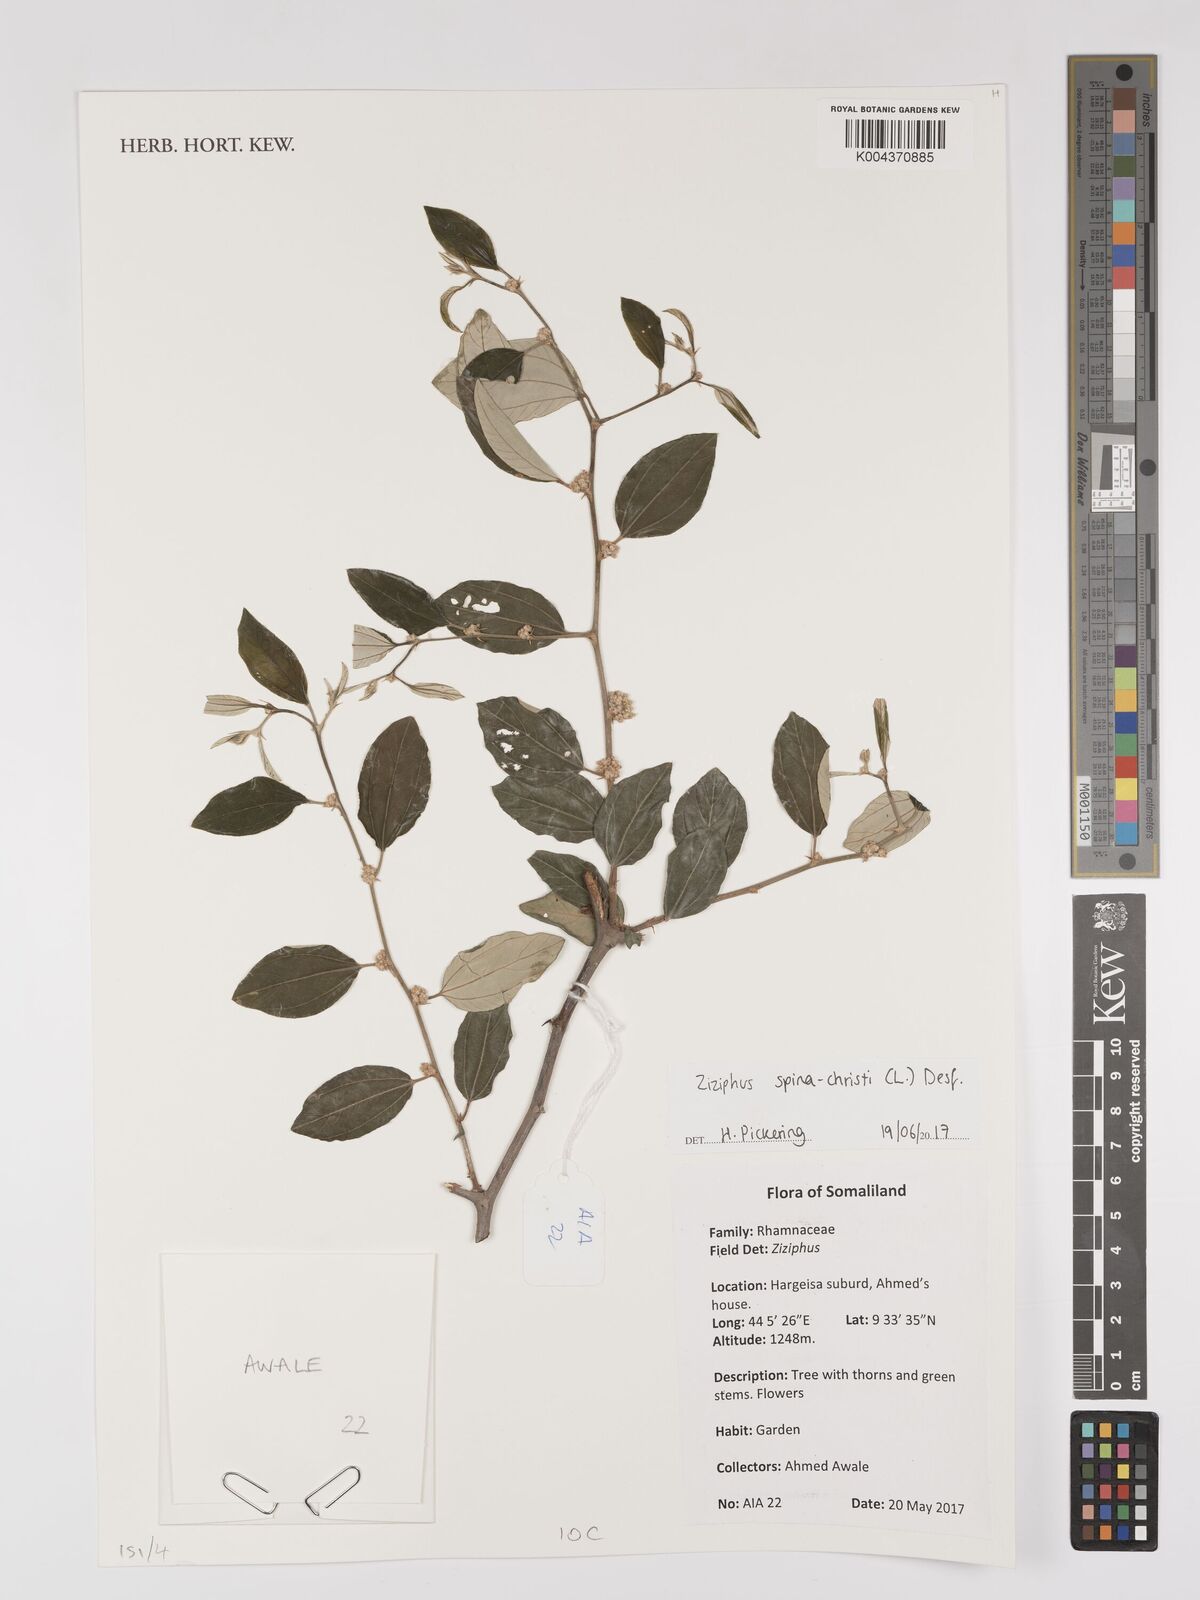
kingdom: Plantae
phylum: Tracheophyta
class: Magnoliopsida
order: Rosales
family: Rhamnaceae
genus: Ziziphus
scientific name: Ziziphus spina-christi
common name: Syrian christ-thorn
